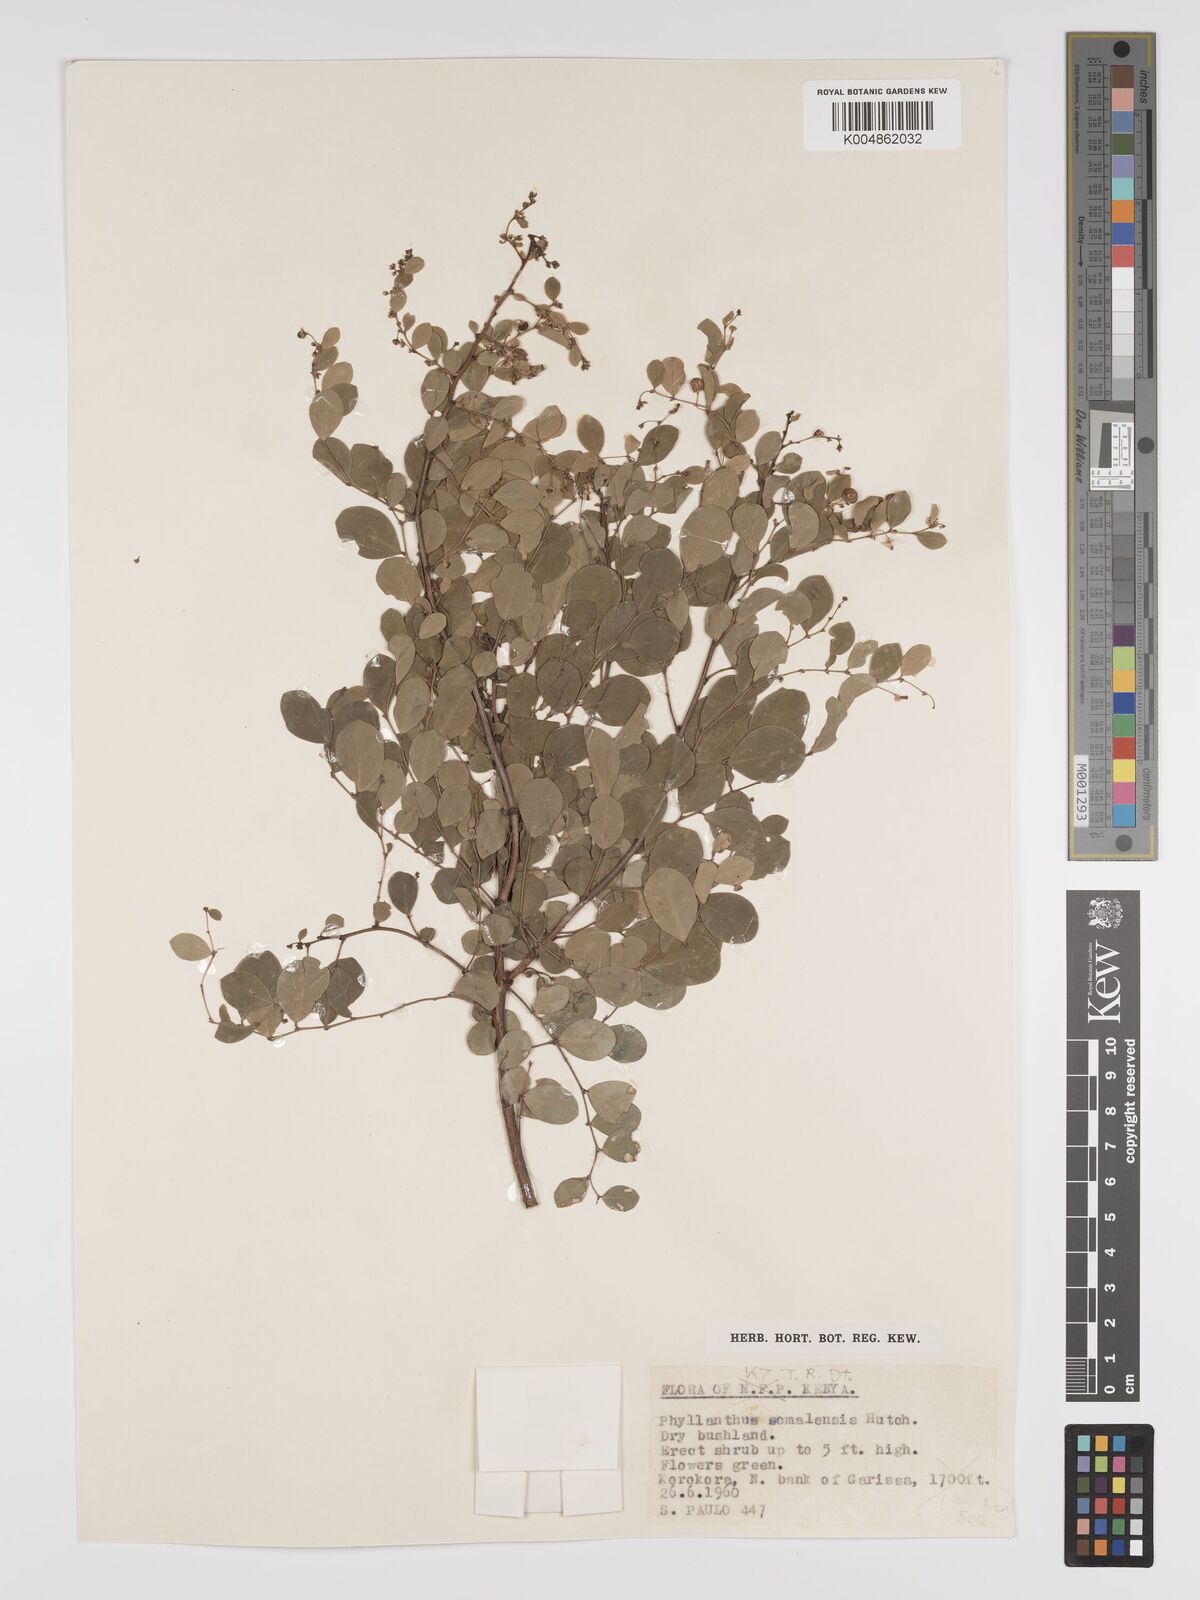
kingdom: Plantae
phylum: Tracheophyta
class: Magnoliopsida
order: Malpighiales
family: Phyllanthaceae
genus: Phyllanthus
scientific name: Phyllanthus somalensis
